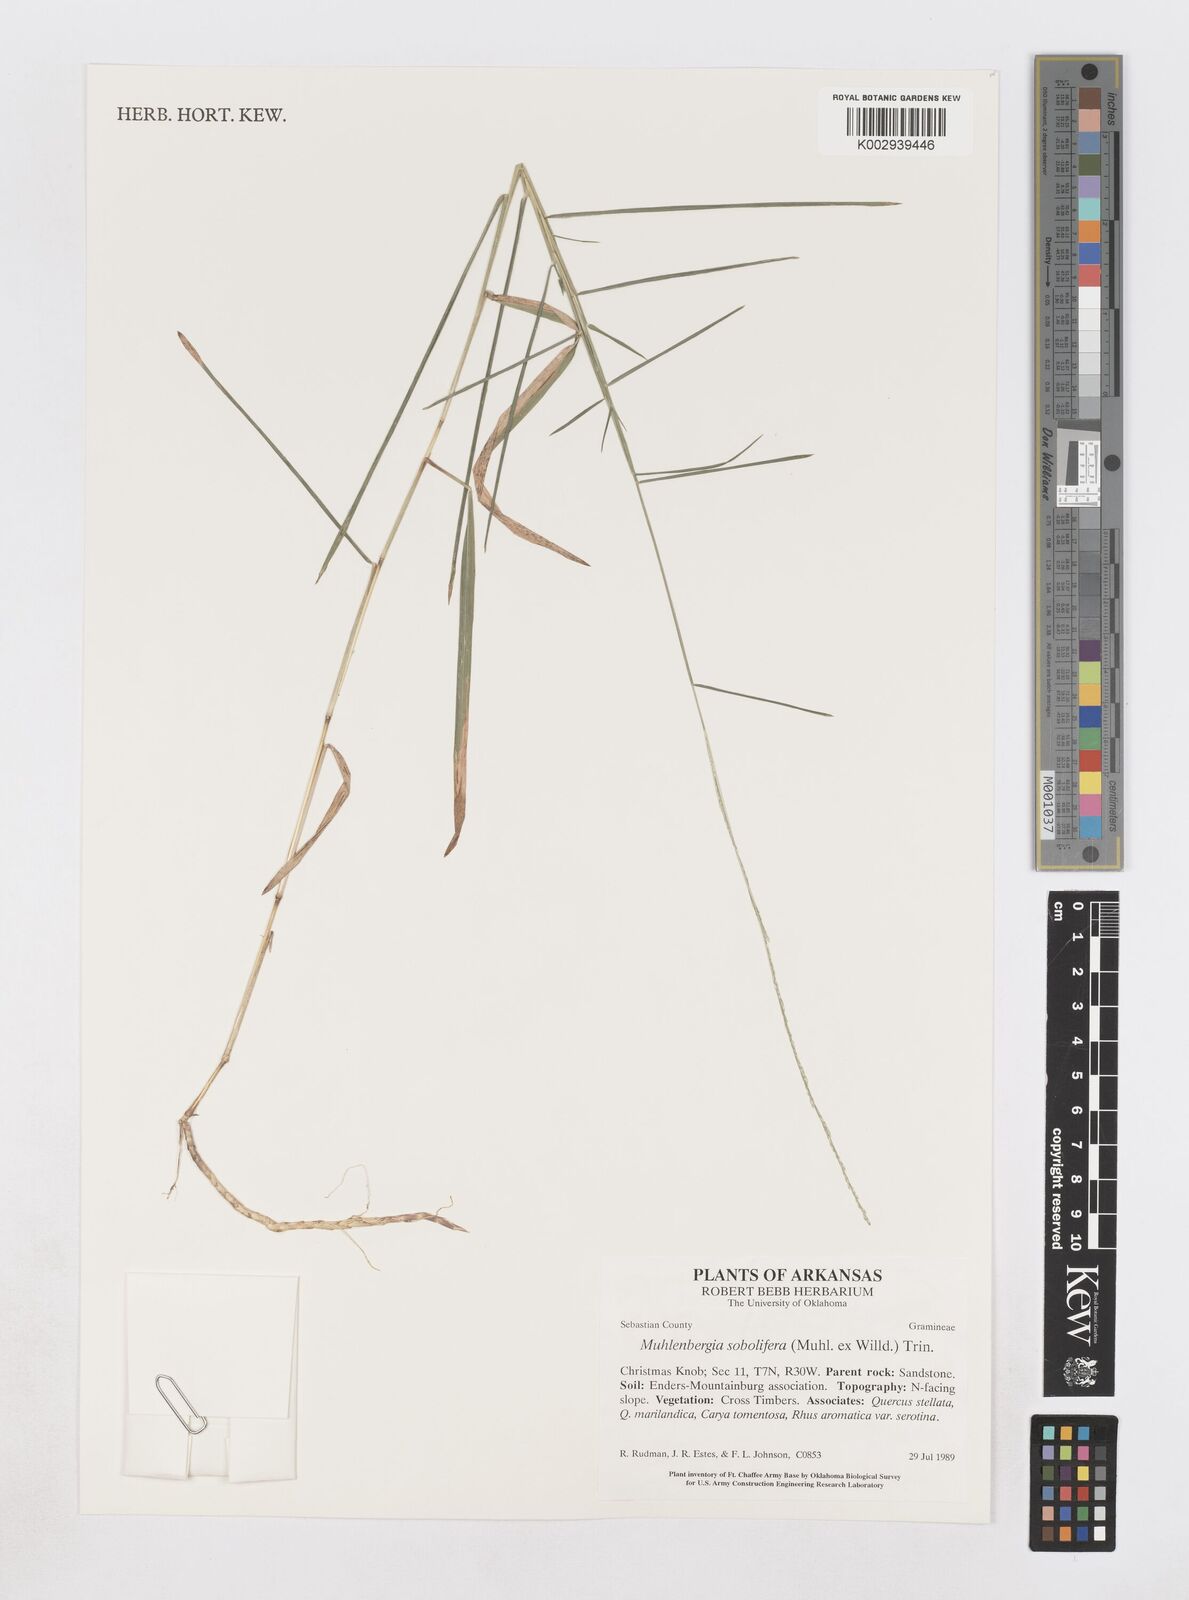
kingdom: Plantae
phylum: Tracheophyta
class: Liliopsida
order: Poales
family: Poaceae
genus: Muhlenbergia
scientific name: Muhlenbergia sobolifera
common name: Creeping muhly
